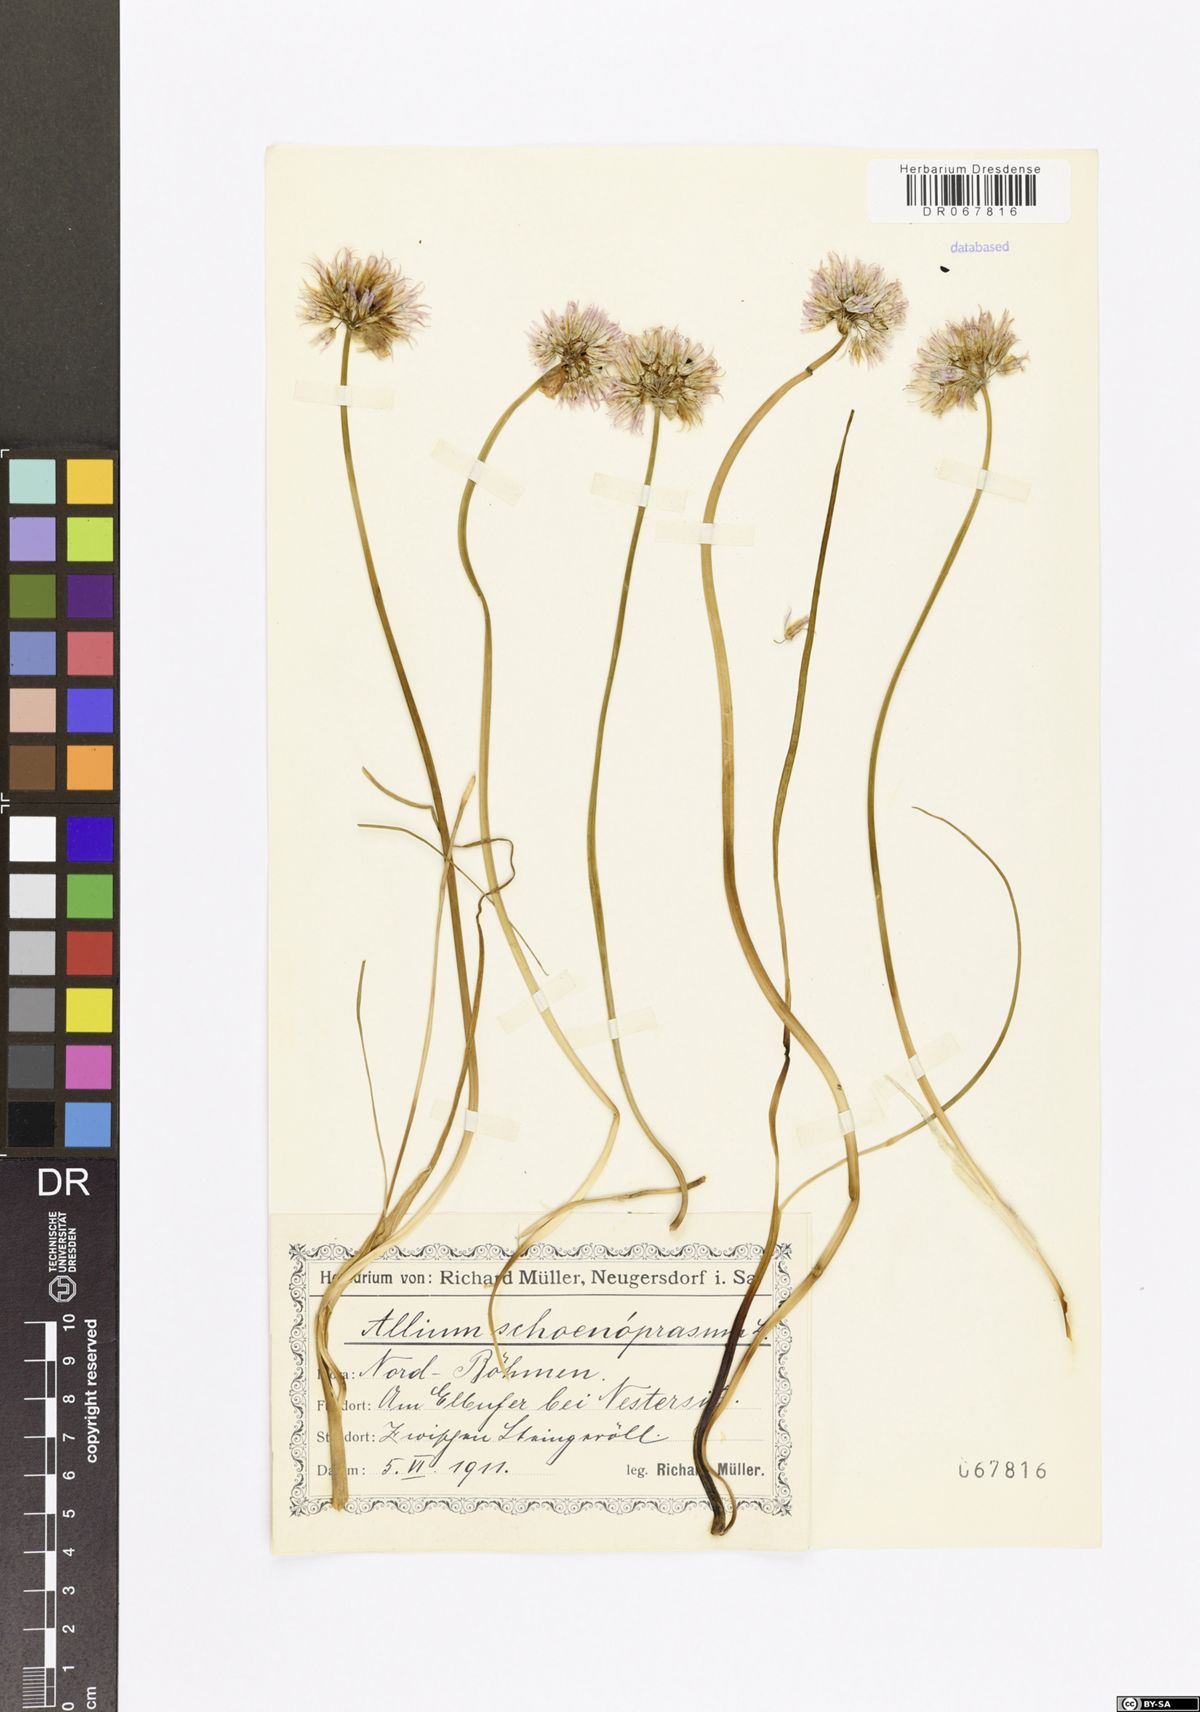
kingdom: Plantae
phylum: Tracheophyta
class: Liliopsida
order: Asparagales
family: Amaryllidaceae
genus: Allium
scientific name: Allium schoenoprasum
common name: Chives
